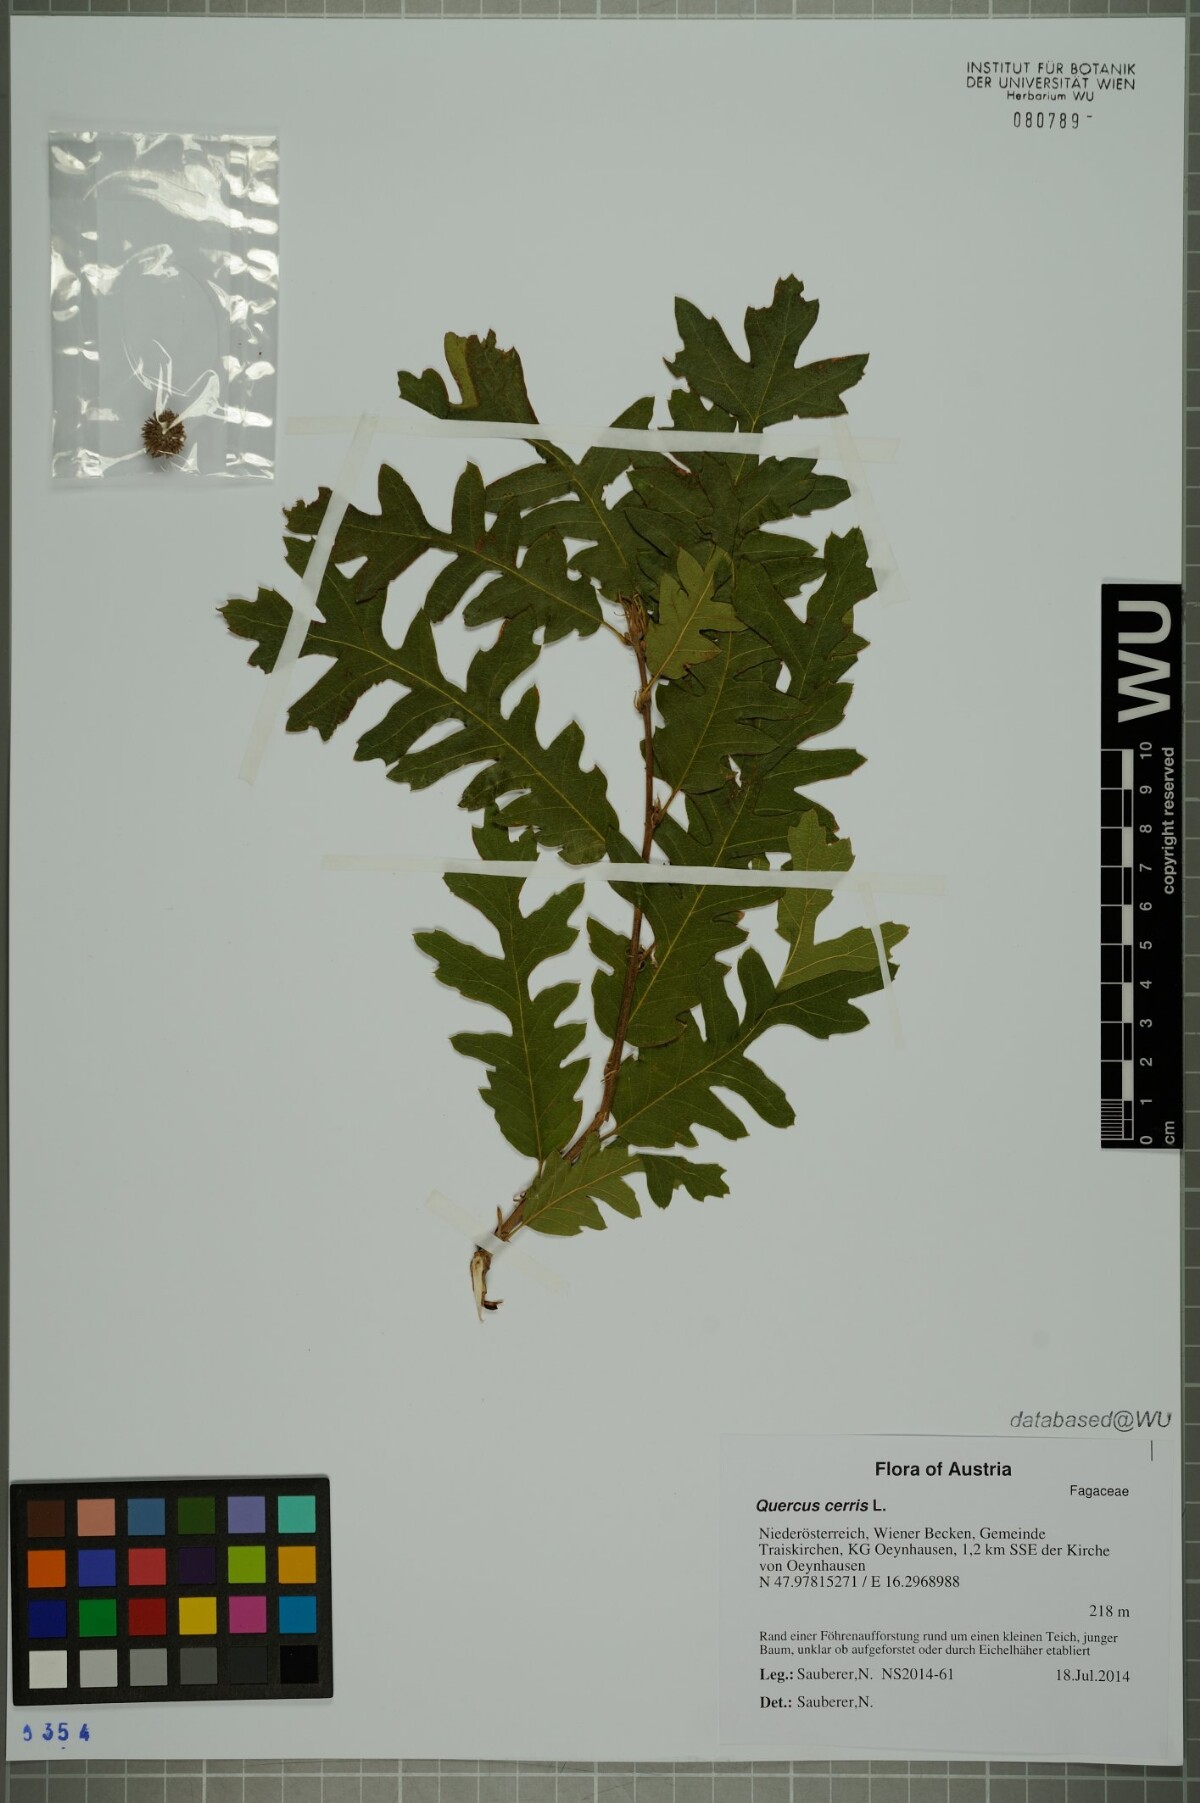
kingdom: Plantae
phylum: Tracheophyta
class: Magnoliopsida
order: Fagales
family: Fagaceae
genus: Quercus
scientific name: Quercus cerris
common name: Turkey oak
